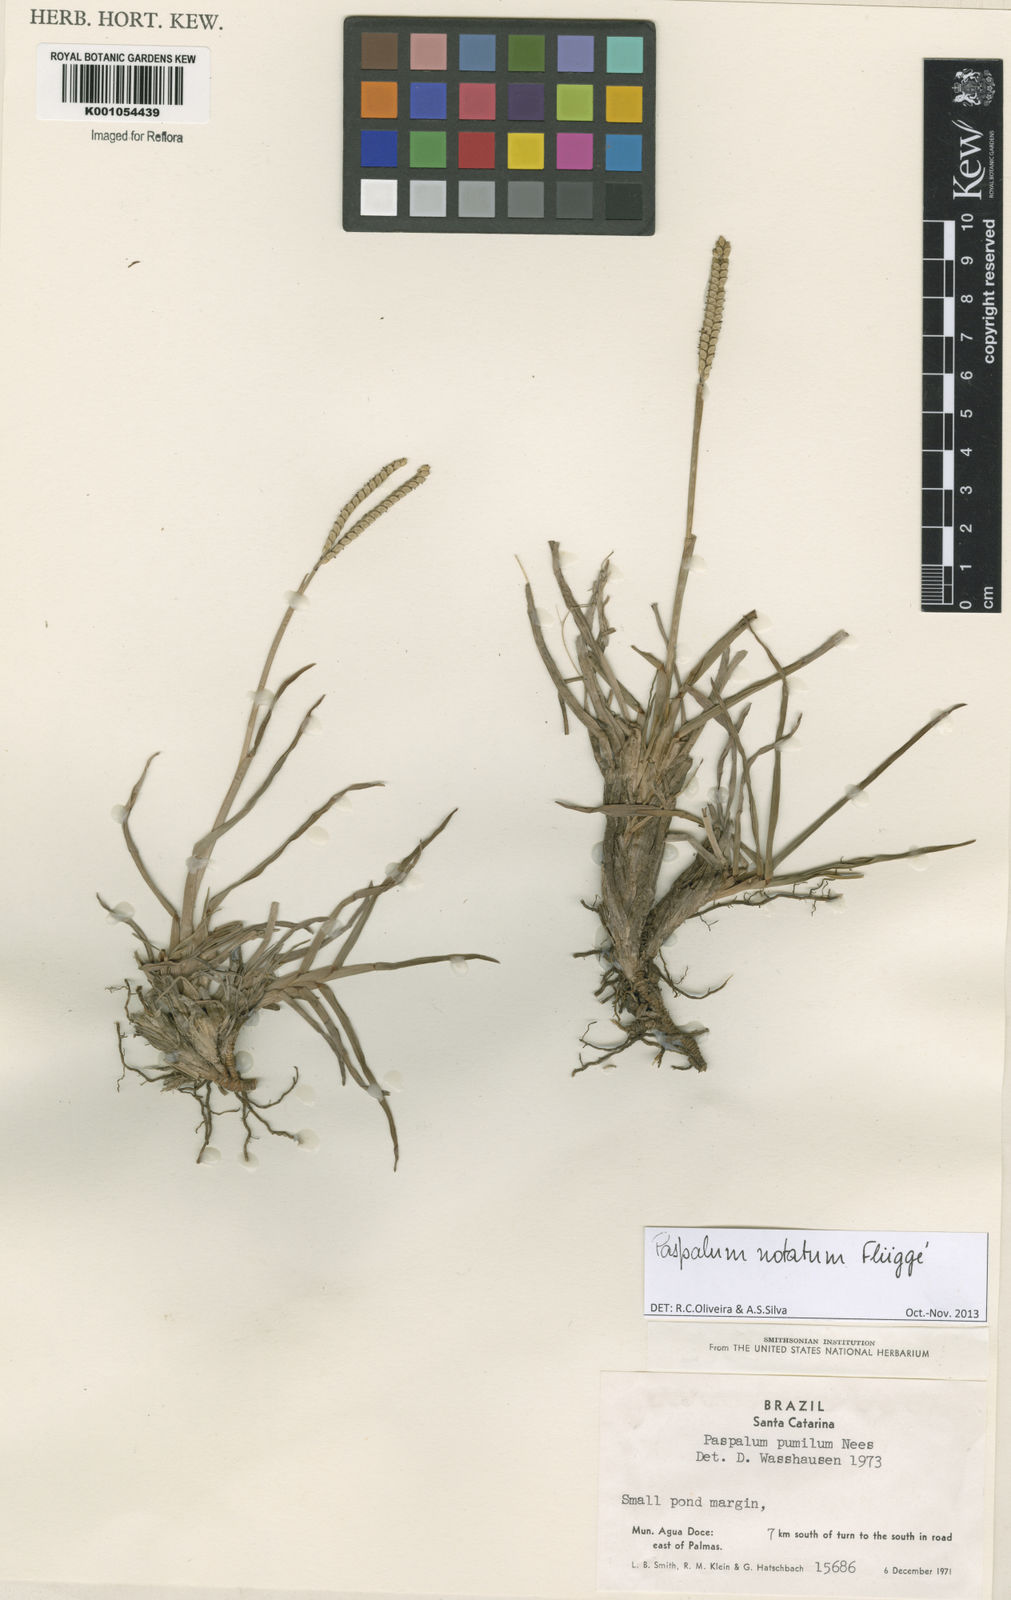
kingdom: Plantae
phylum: Tracheophyta
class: Liliopsida
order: Poales
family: Poaceae
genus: Paspalum
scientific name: Paspalum
